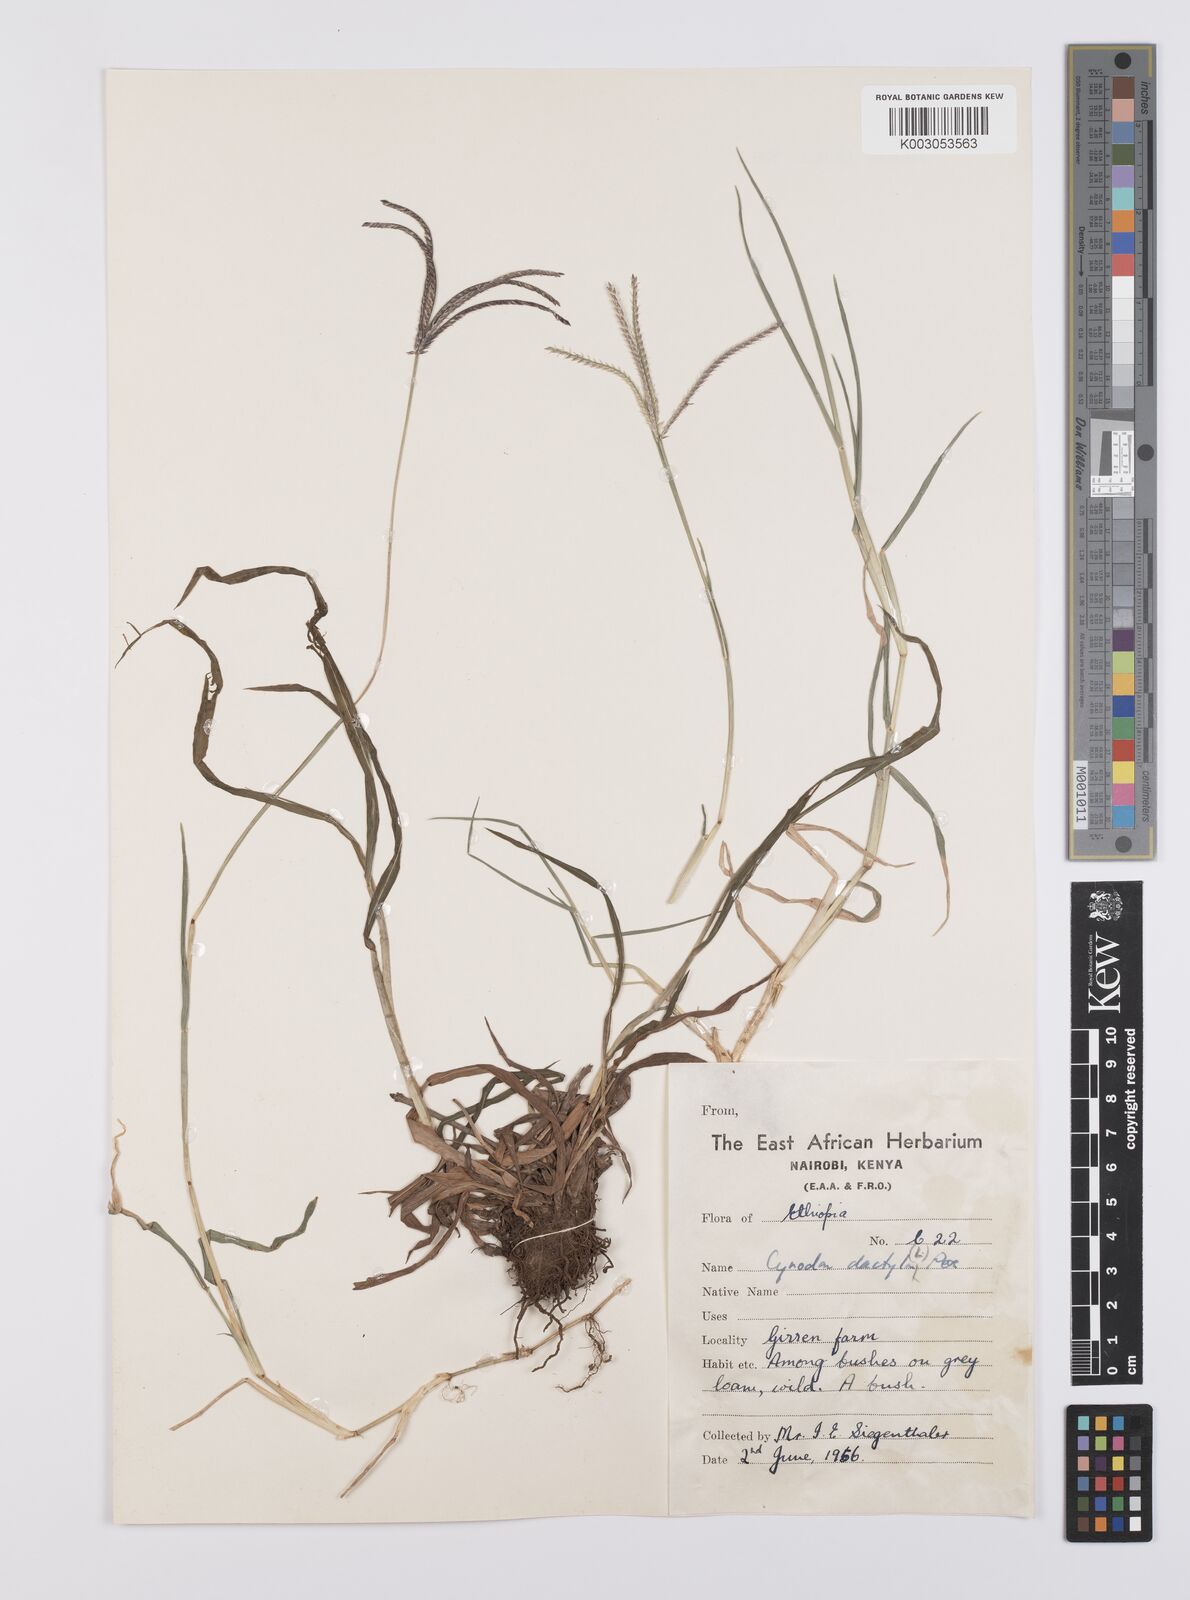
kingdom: Plantae
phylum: Tracheophyta
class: Liliopsida
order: Poales
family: Poaceae
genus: Cynodon
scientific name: Cynodon dactylon
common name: Bermuda grass
